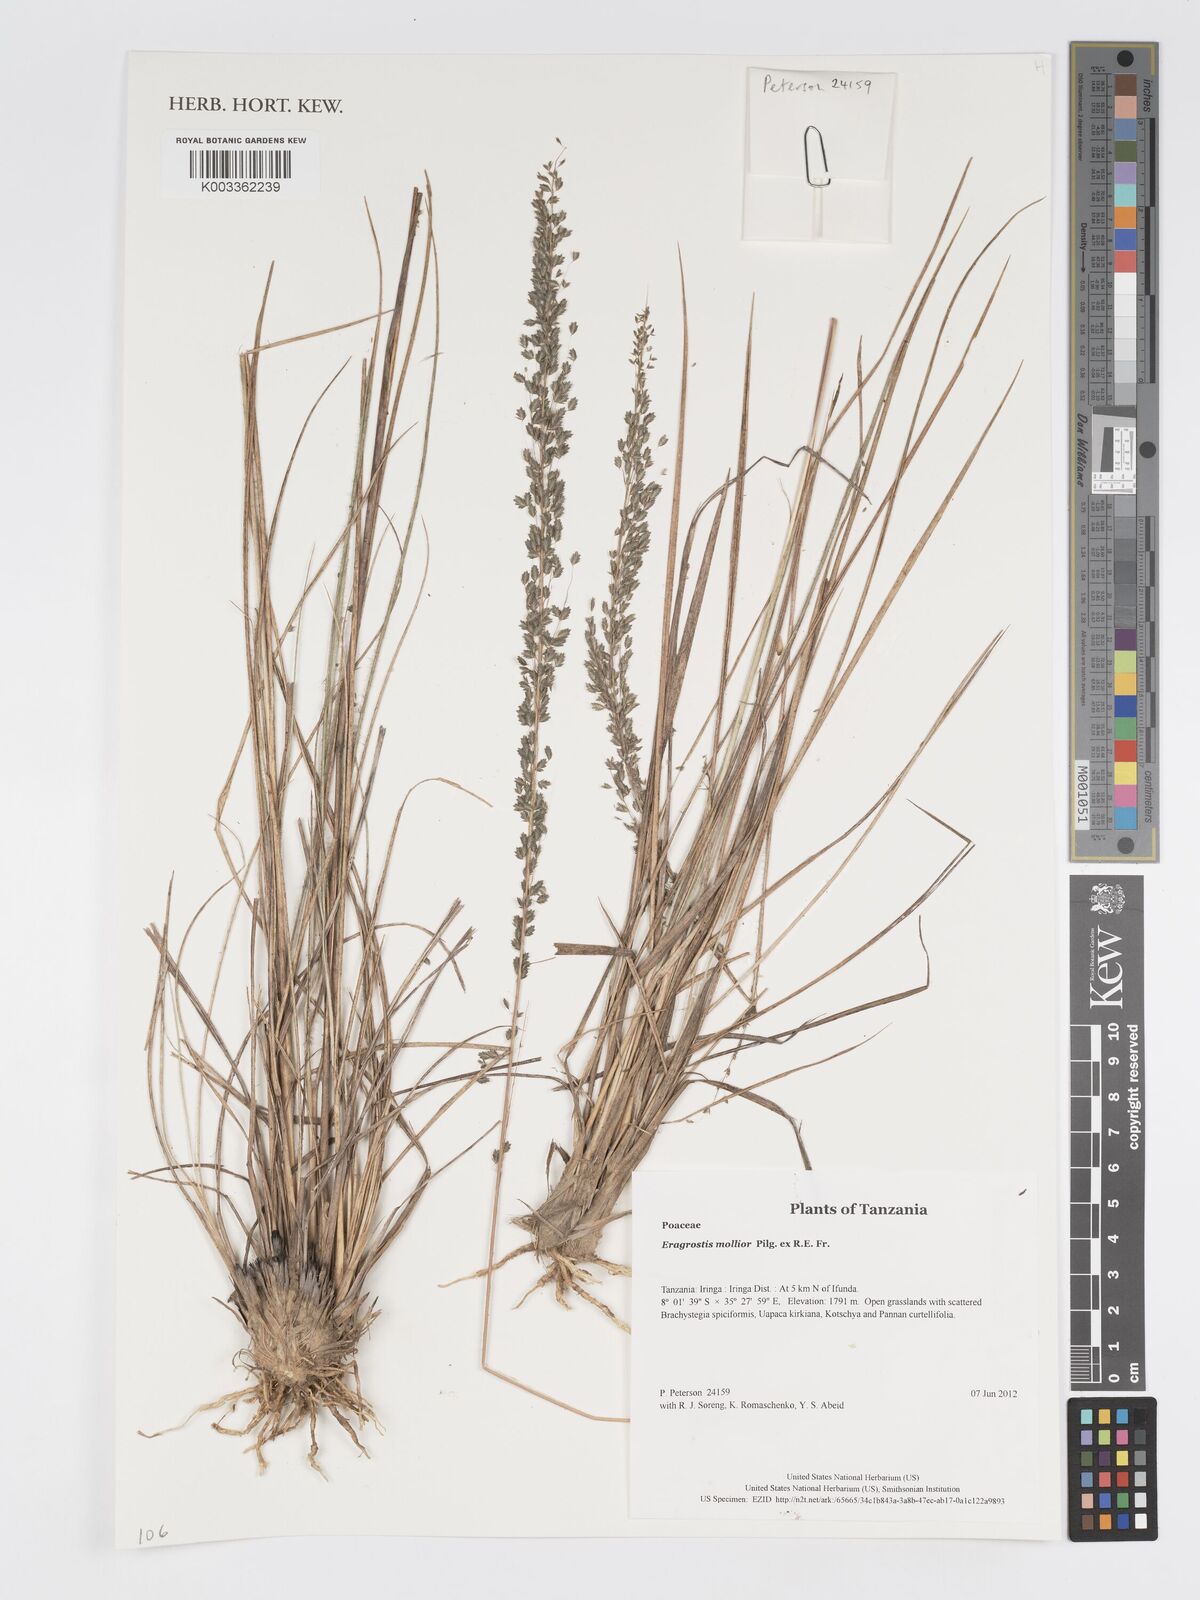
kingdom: Plantae
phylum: Tracheophyta
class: Liliopsida
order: Poales
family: Poaceae
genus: Eragrostis
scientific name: Eragrostis mollior
